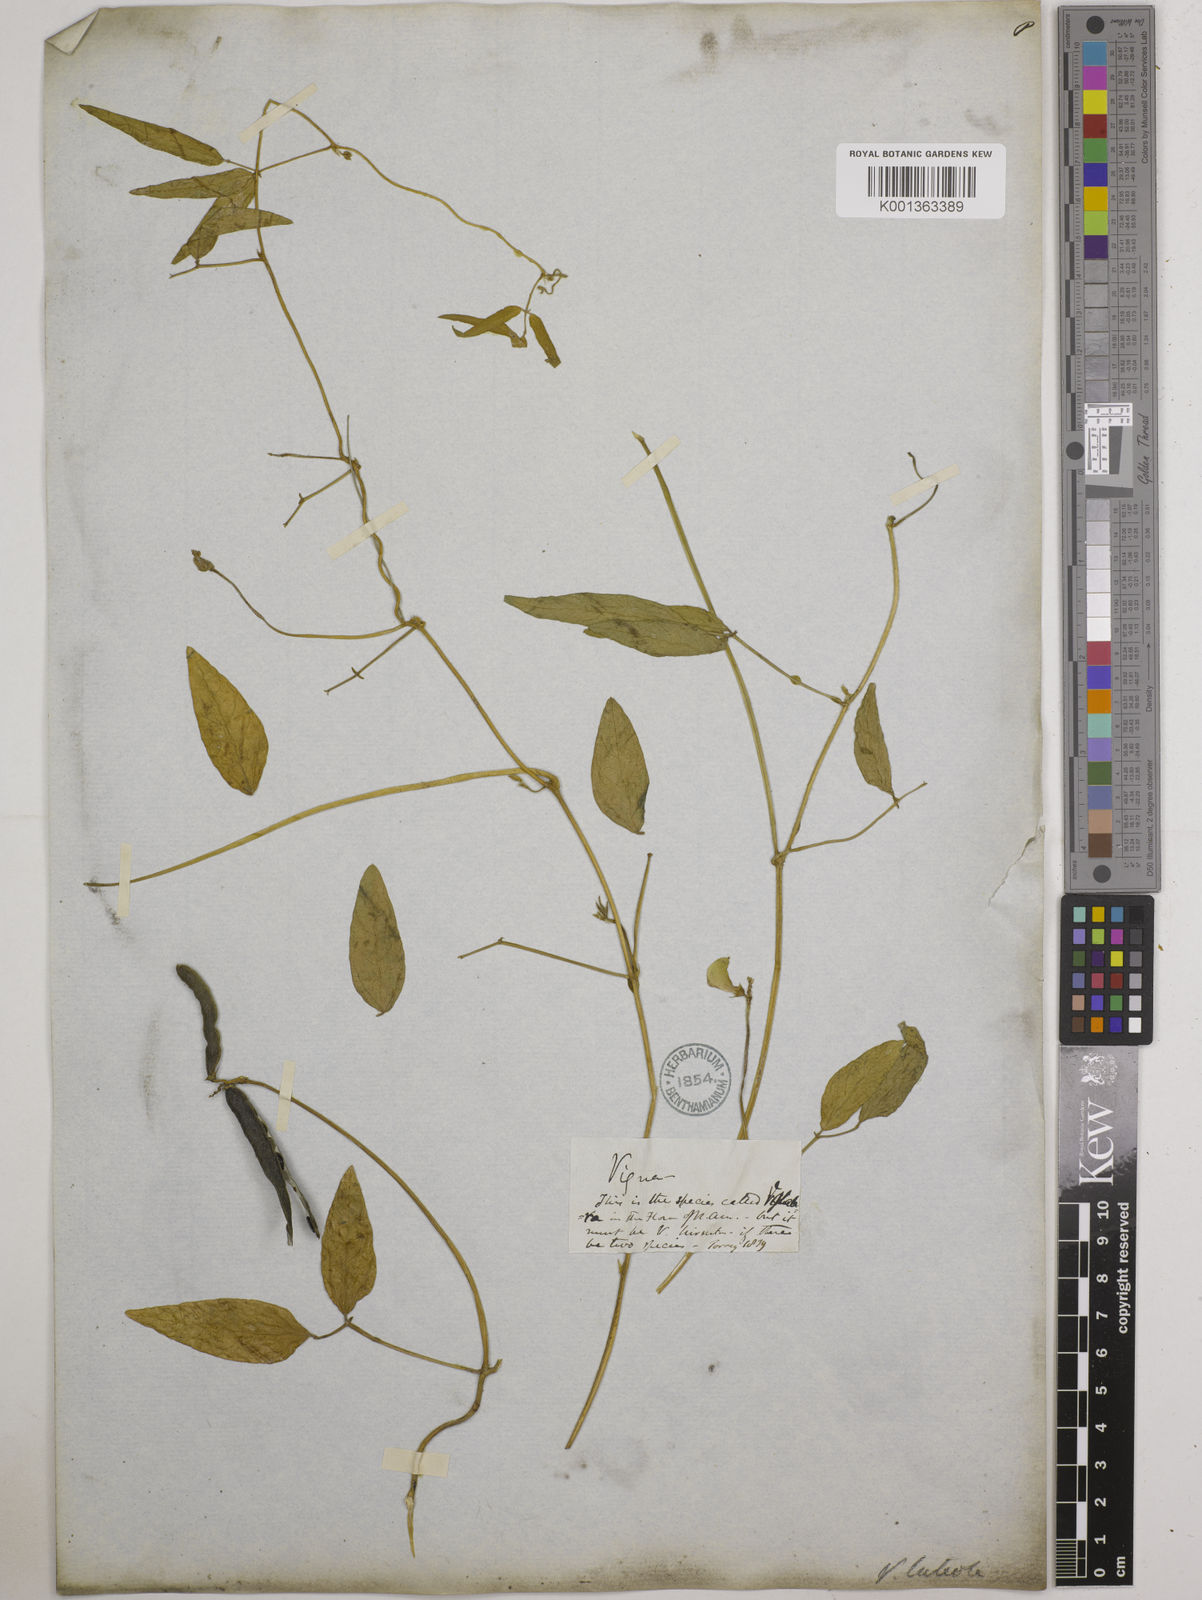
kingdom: Plantae
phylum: Tracheophyta
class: Magnoliopsida
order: Fabales
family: Fabaceae
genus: Vigna
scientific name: Vigna luteola
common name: Hairypod cowpea
